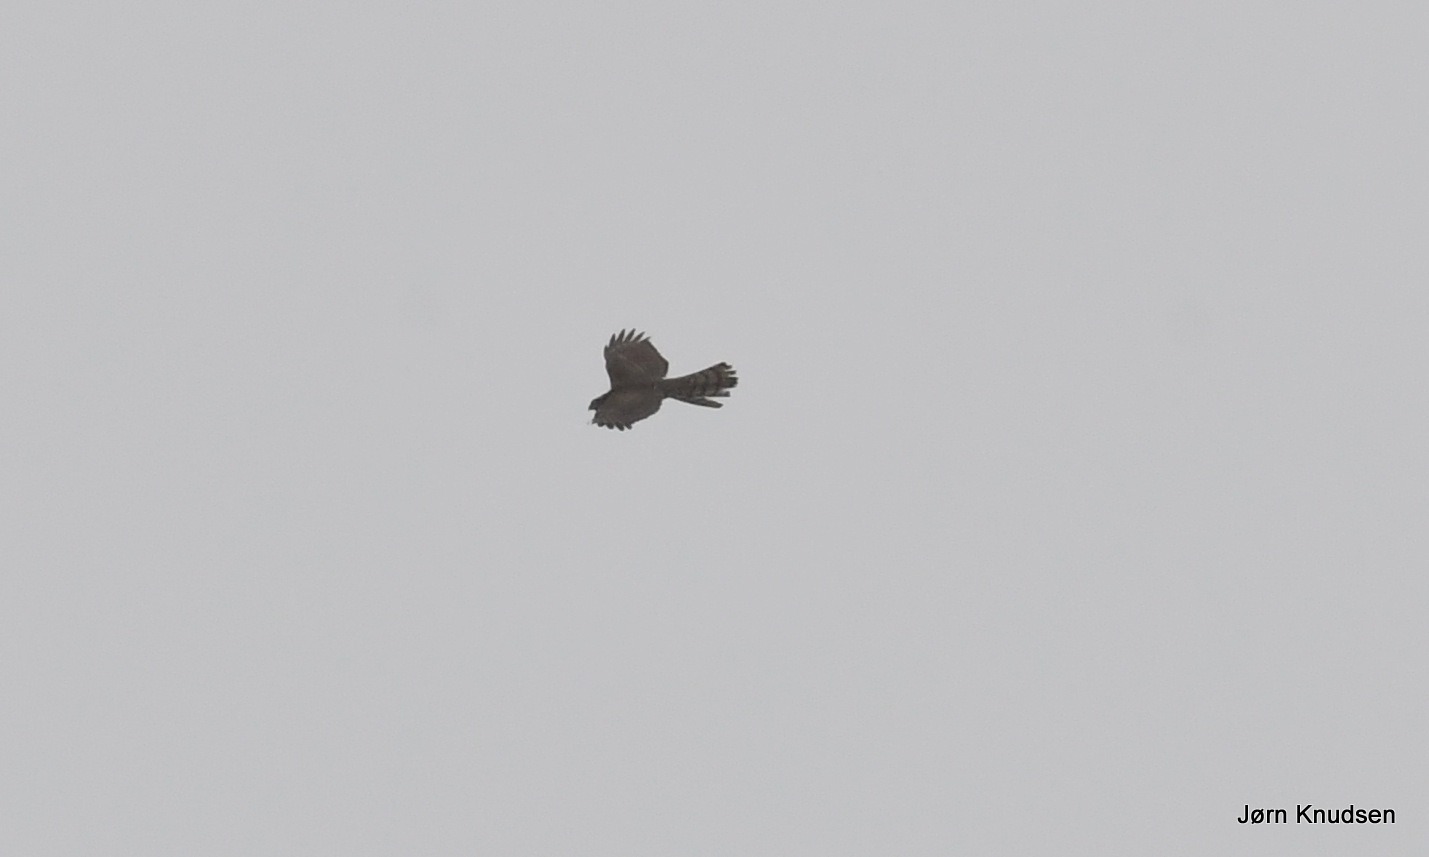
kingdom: Animalia
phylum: Chordata
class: Aves
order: Accipitriformes
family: Accipitridae
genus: Accipiter
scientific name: Accipiter nisus
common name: Spurvehøg
